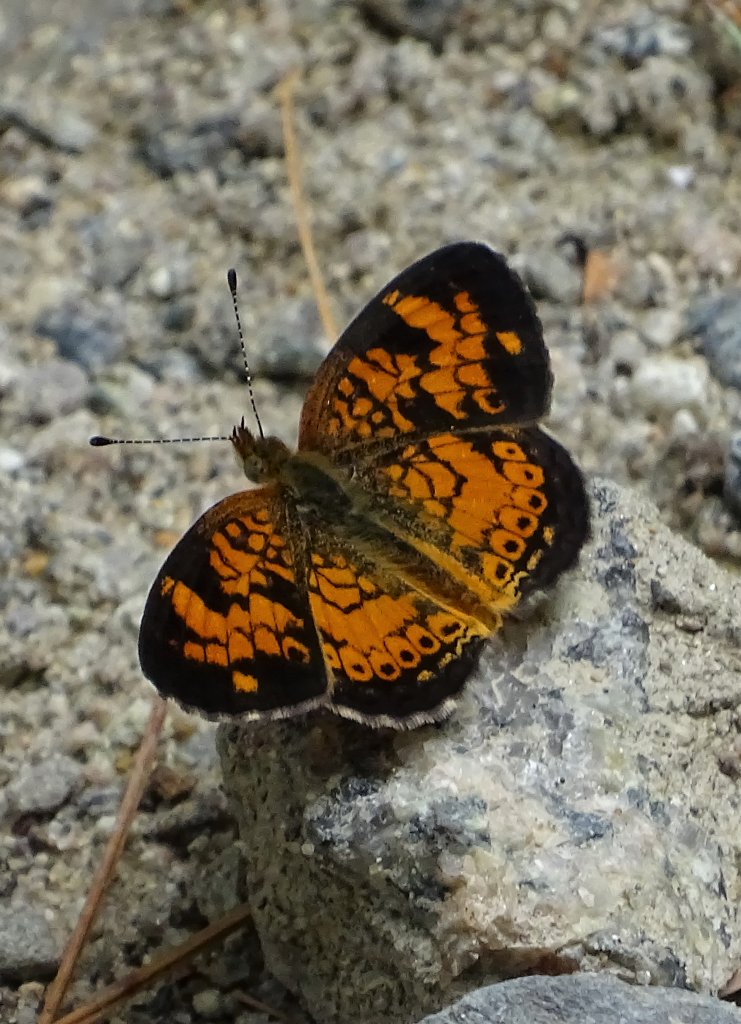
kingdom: Animalia
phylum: Arthropoda
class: Insecta
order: Lepidoptera
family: Nymphalidae
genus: Phyciodes
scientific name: Phyciodes tharos
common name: Pearl Crescent
